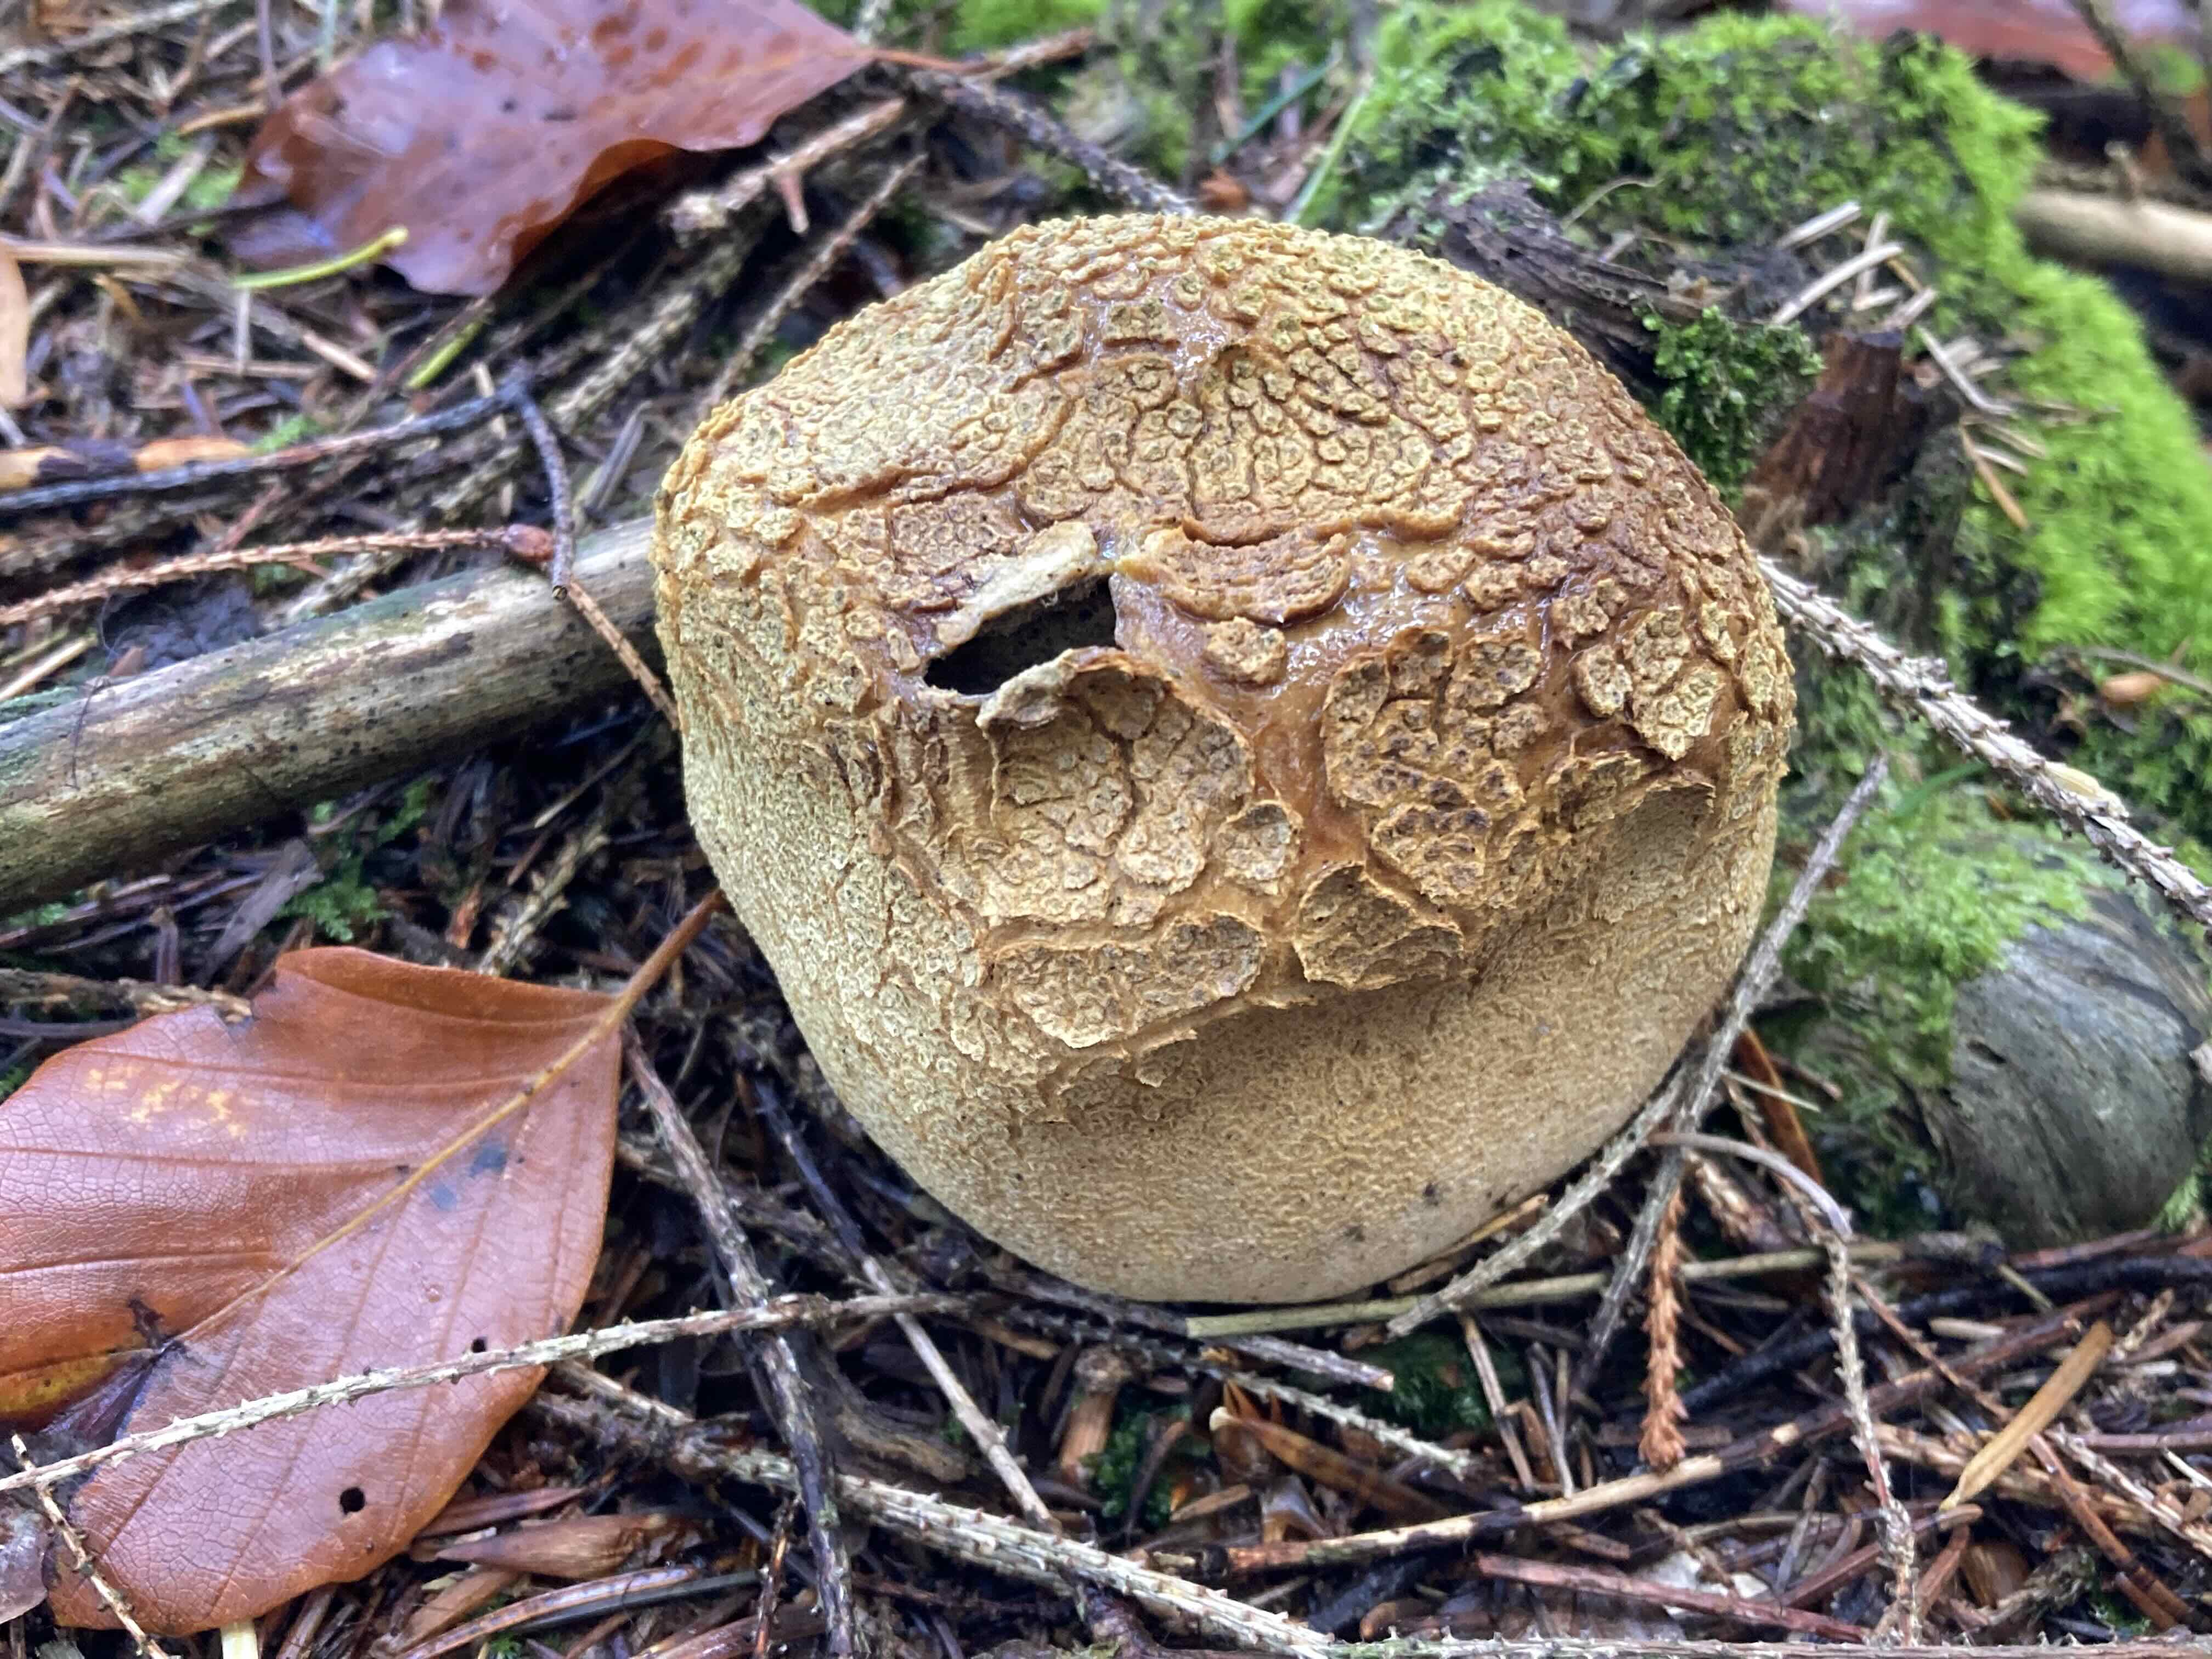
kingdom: Fungi
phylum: Basidiomycota
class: Agaricomycetes
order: Boletales
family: Sclerodermataceae
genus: Scleroderma
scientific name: Scleroderma citrinum
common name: almindelig bruskbold
